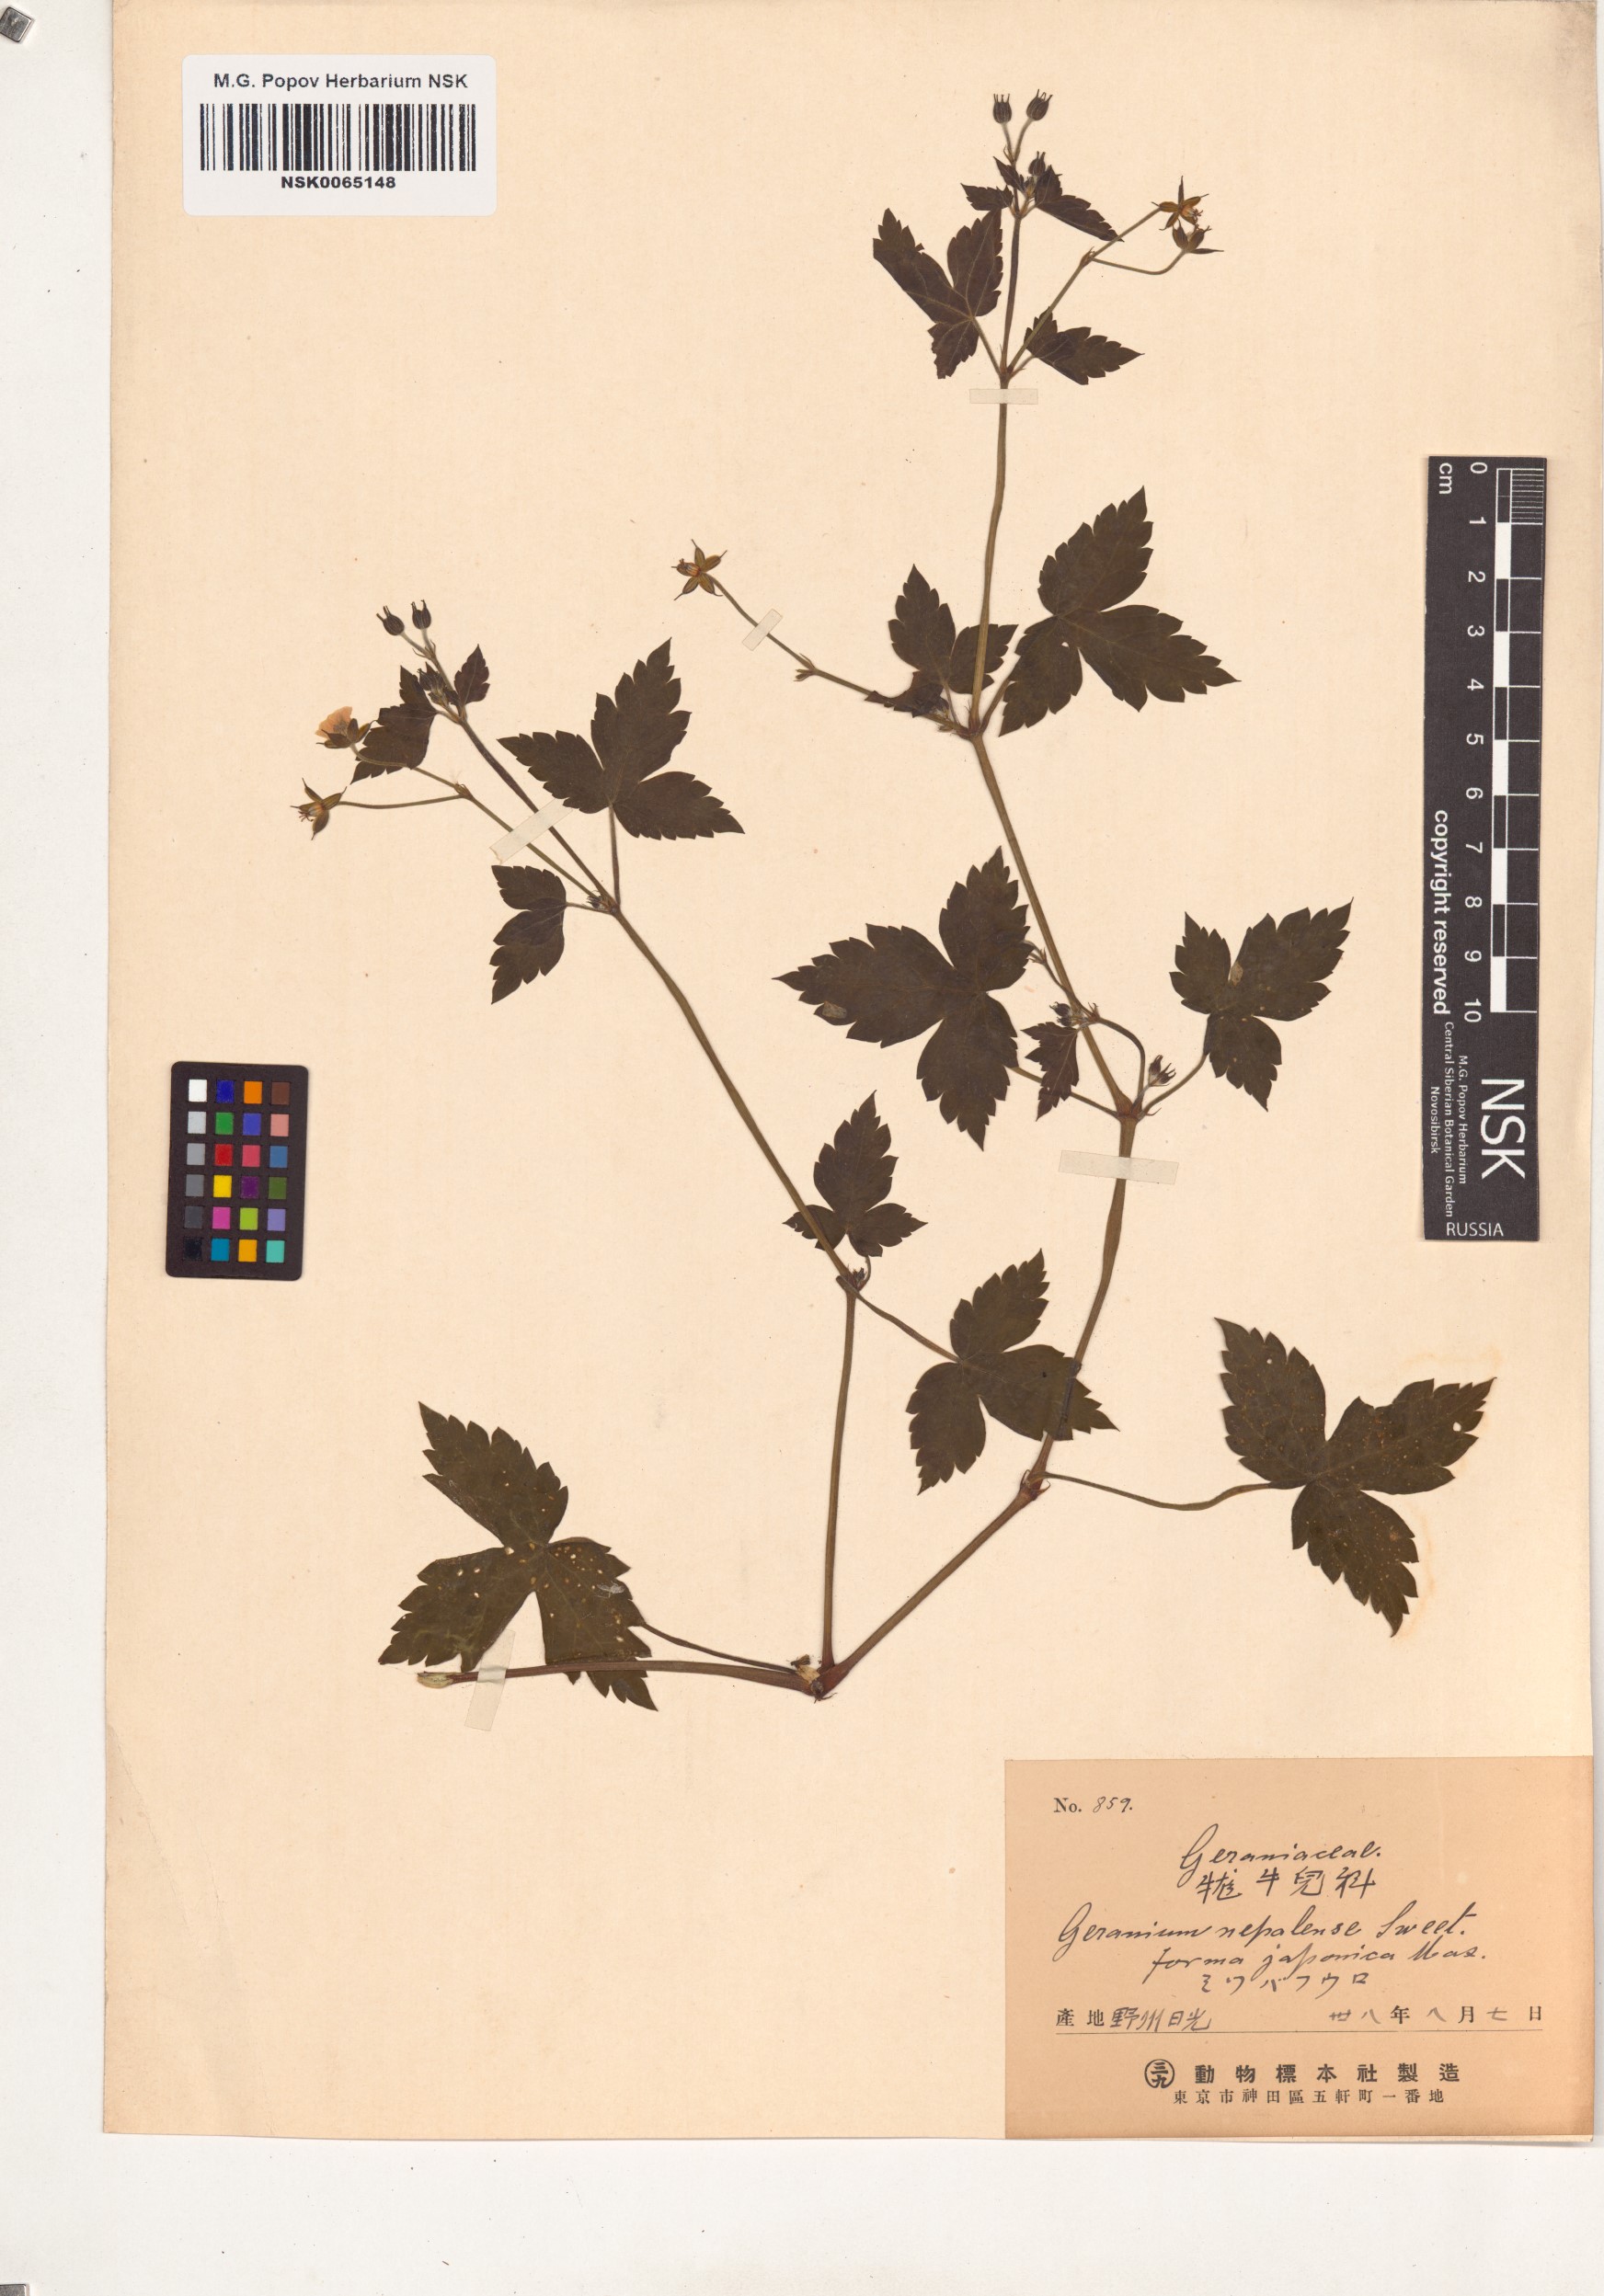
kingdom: Plantae
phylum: Tracheophyta
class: Magnoliopsida
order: Geraniales
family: Geraniaceae
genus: Geranium
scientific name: Geranium thunbergii
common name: Dewdrop crane's-bill
